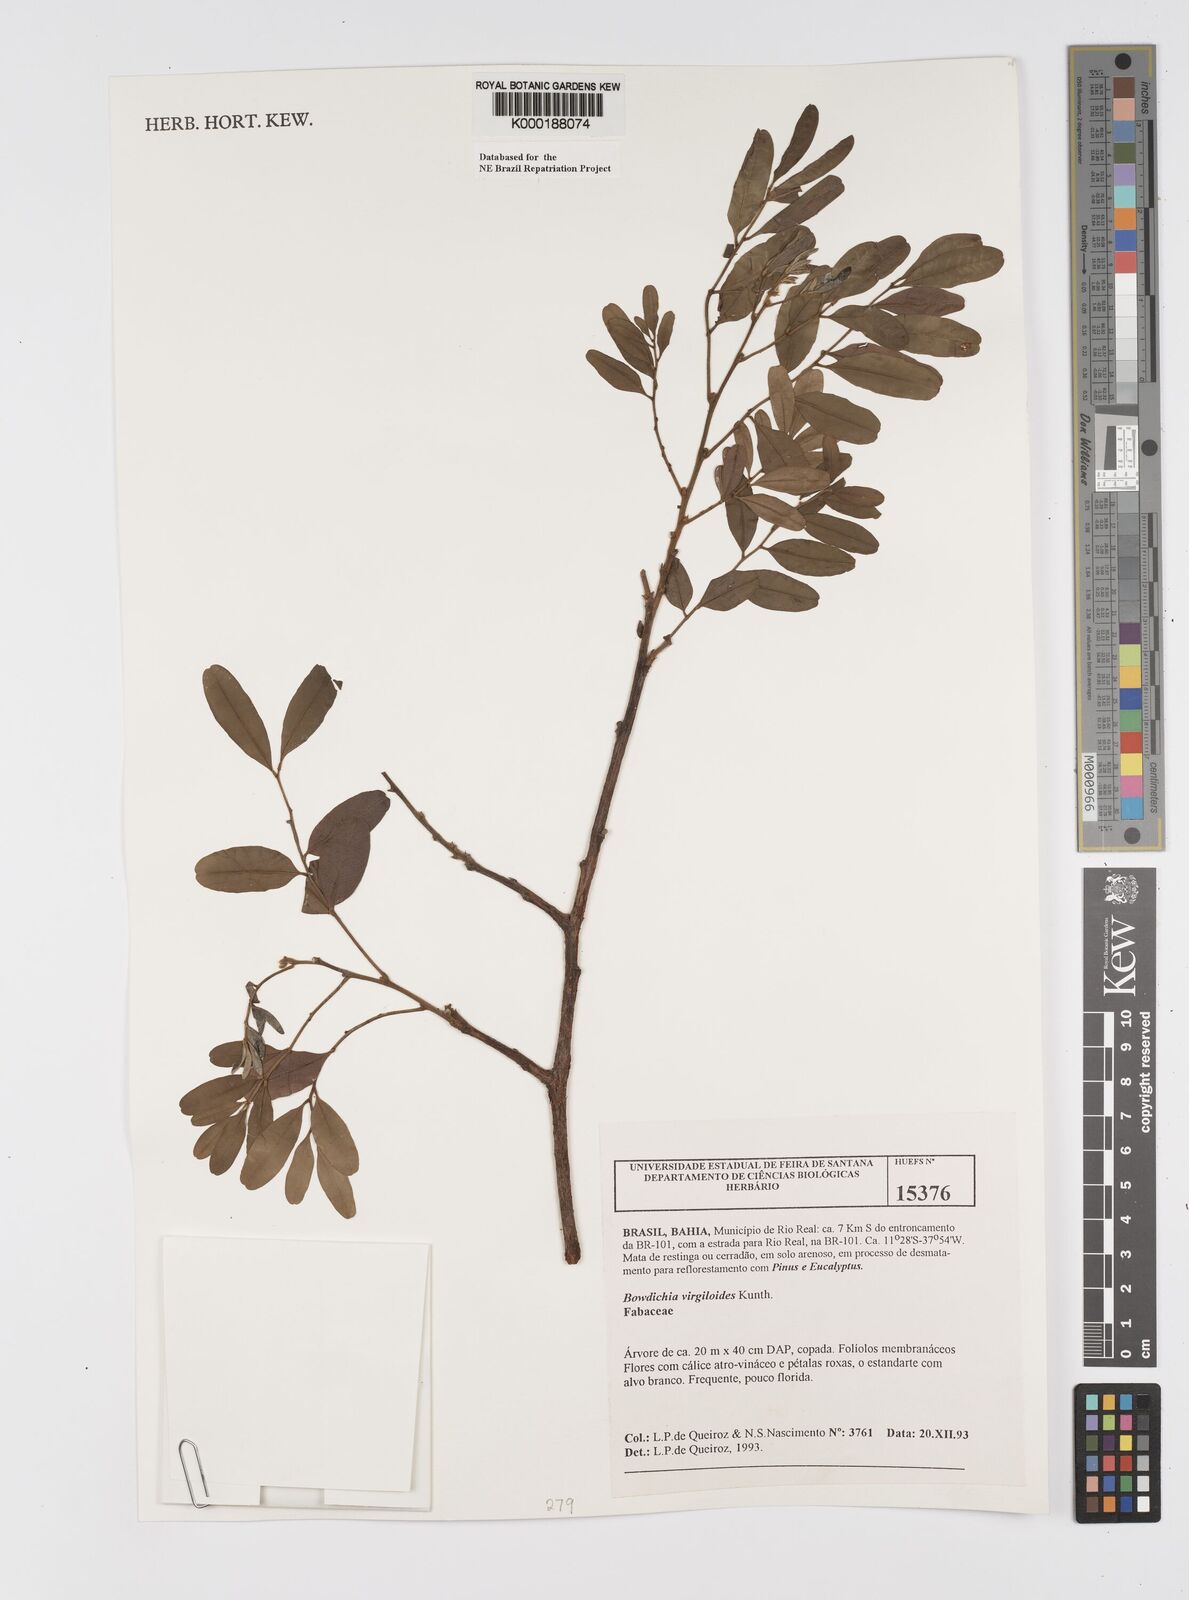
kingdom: Plantae
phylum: Tracheophyta
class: Magnoliopsida
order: Fabales
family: Fabaceae
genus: Bowdichia
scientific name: Bowdichia virgilioides
